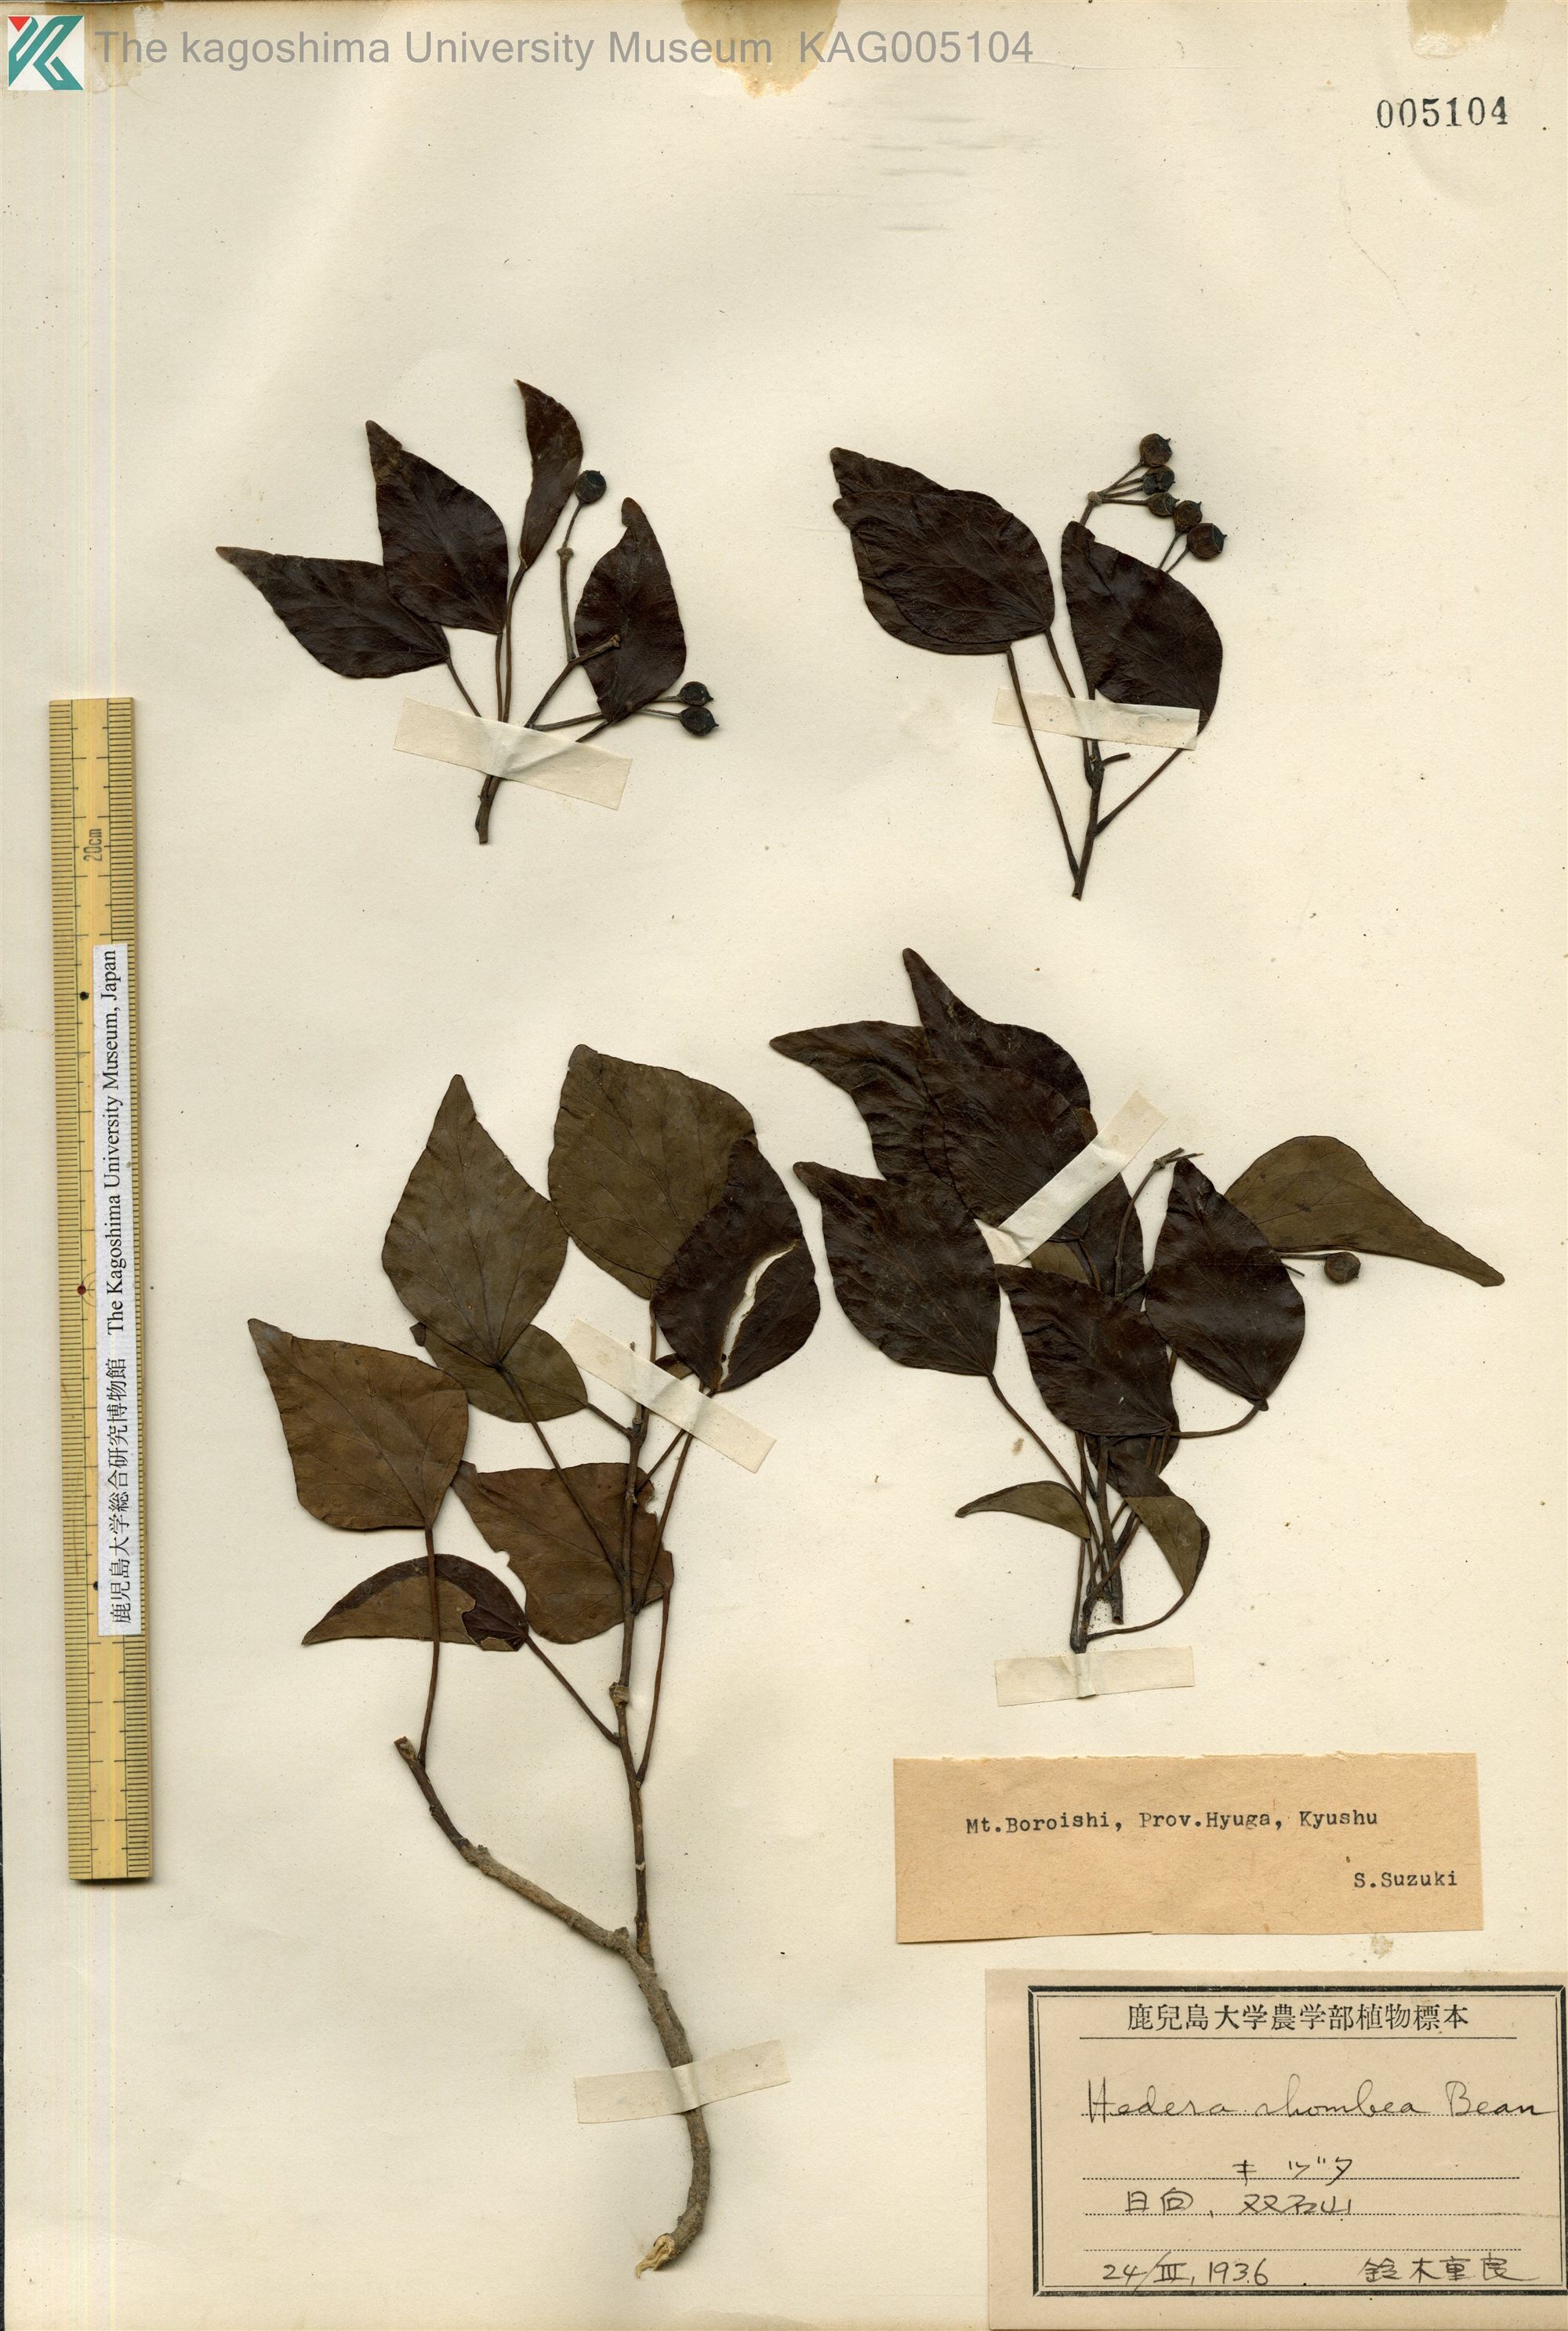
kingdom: Plantae
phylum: Tracheophyta
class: Magnoliopsida
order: Apiales
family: Araliaceae
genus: Hedera
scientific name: Hedera rhombea
